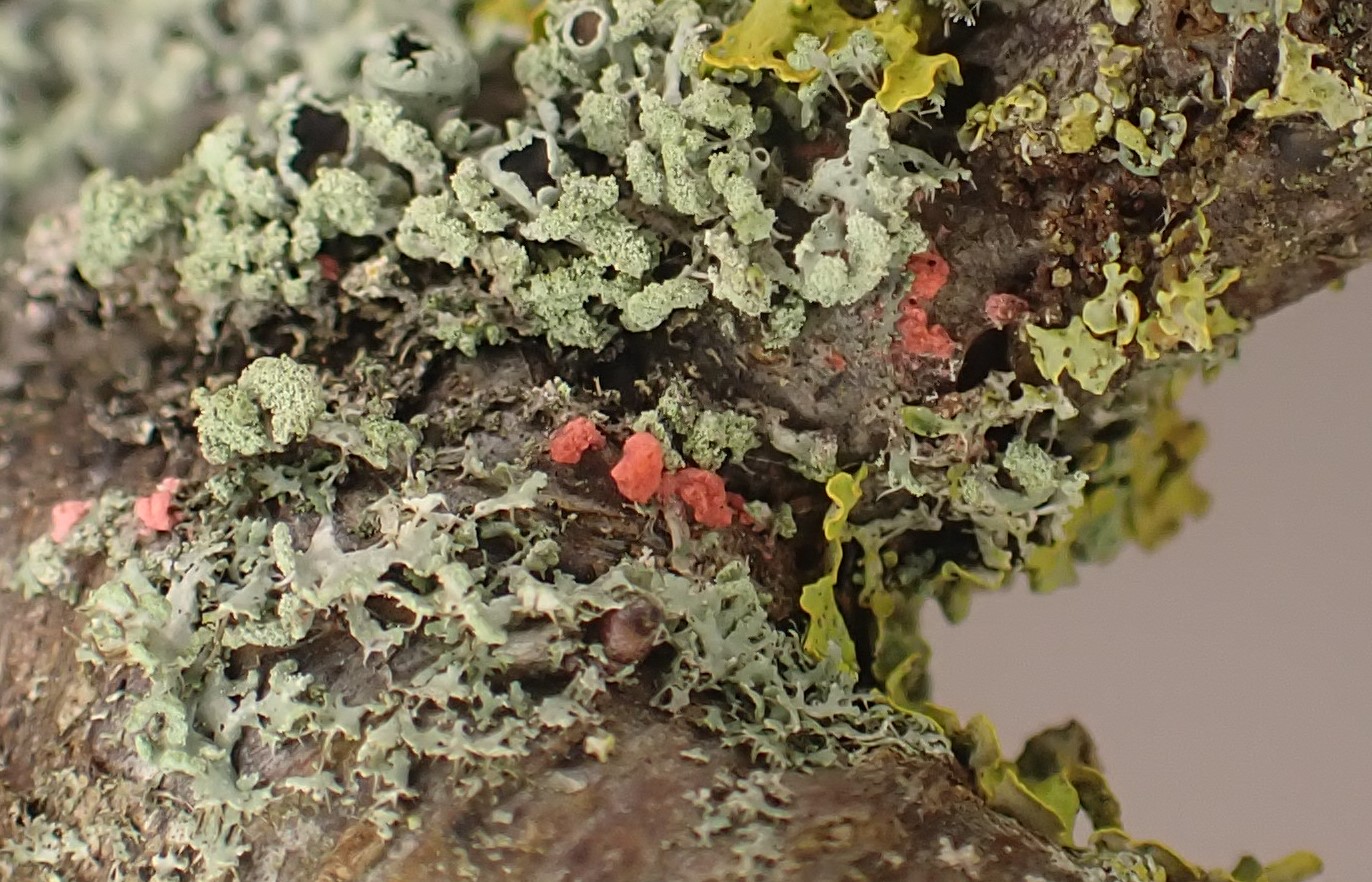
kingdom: Fungi
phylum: Ascomycota
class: Sordariomycetes
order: Hypocreales
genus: Illosporiopsis
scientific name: Illosporiopsis christiansenii
